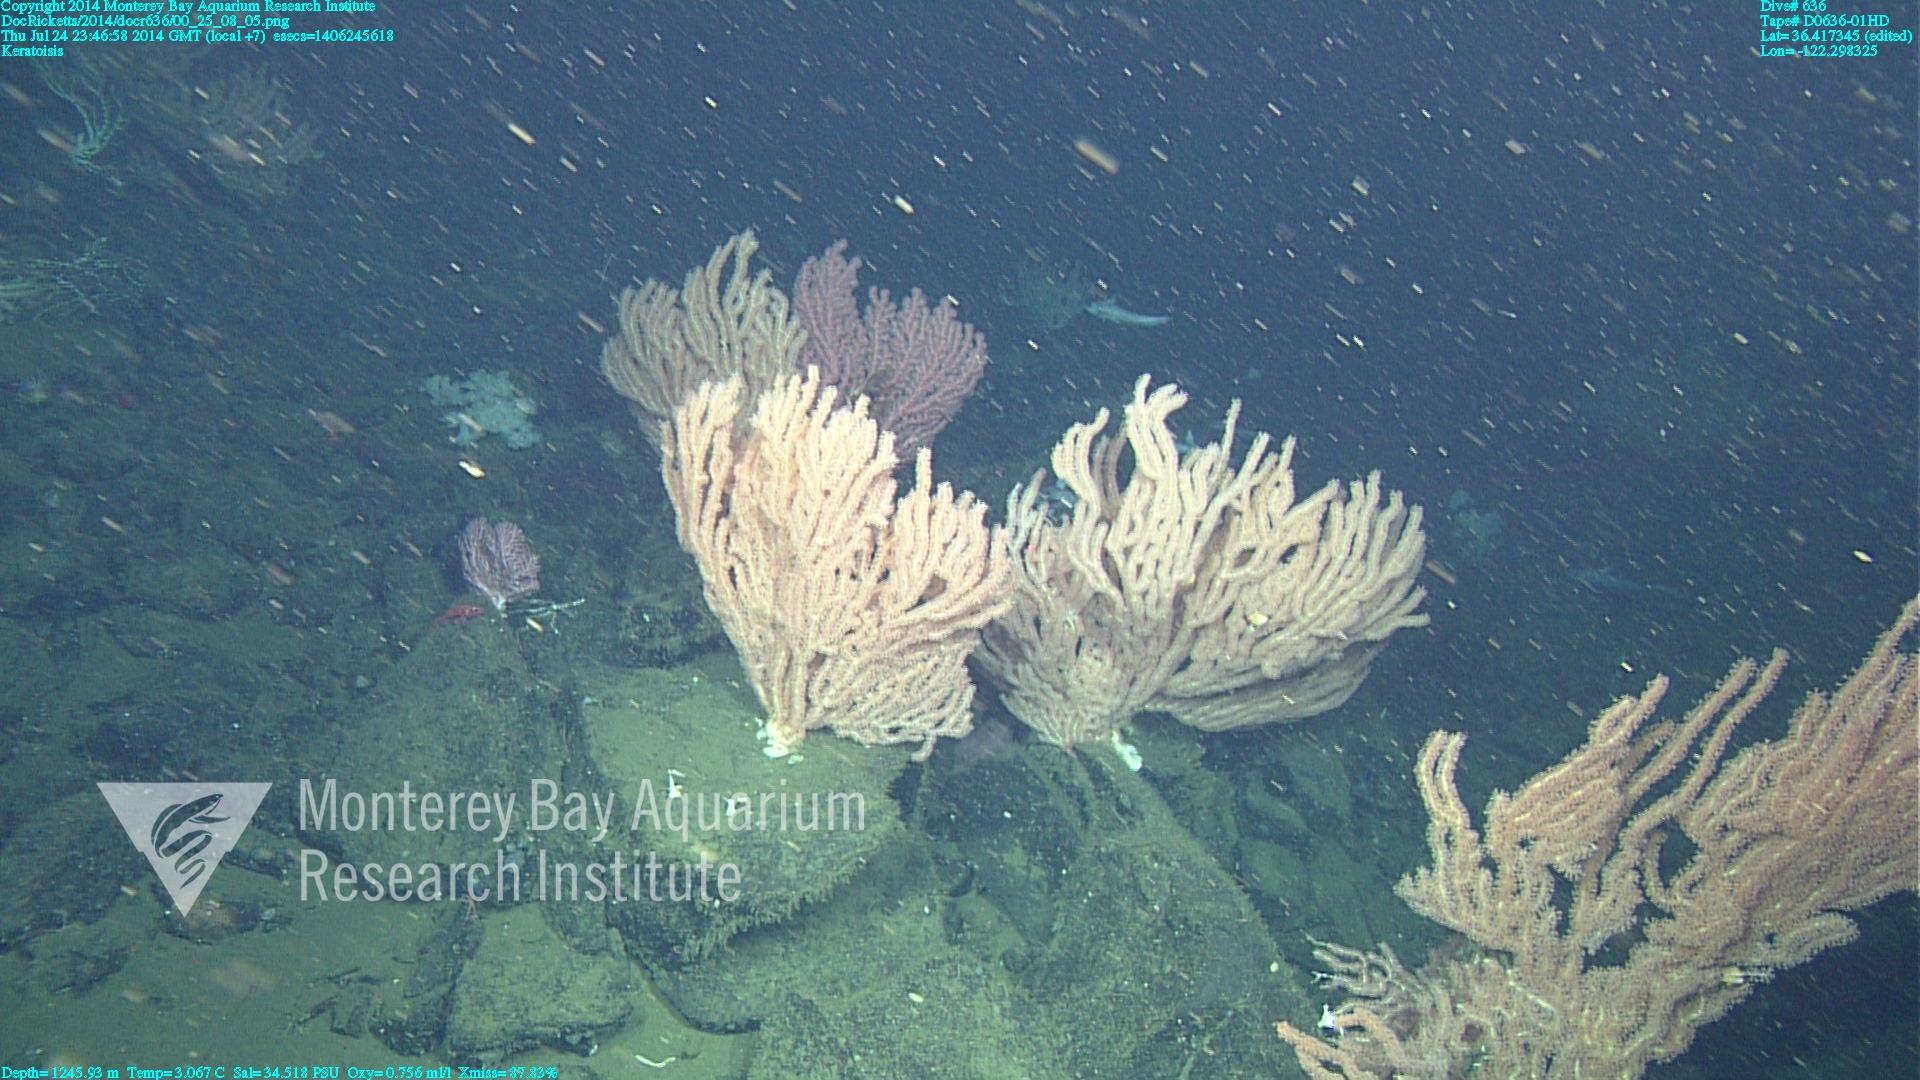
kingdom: Animalia
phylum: Cnidaria
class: Anthozoa
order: Scleralcyonacea
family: Keratoisididae
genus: Keratoisis
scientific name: Keratoisis
